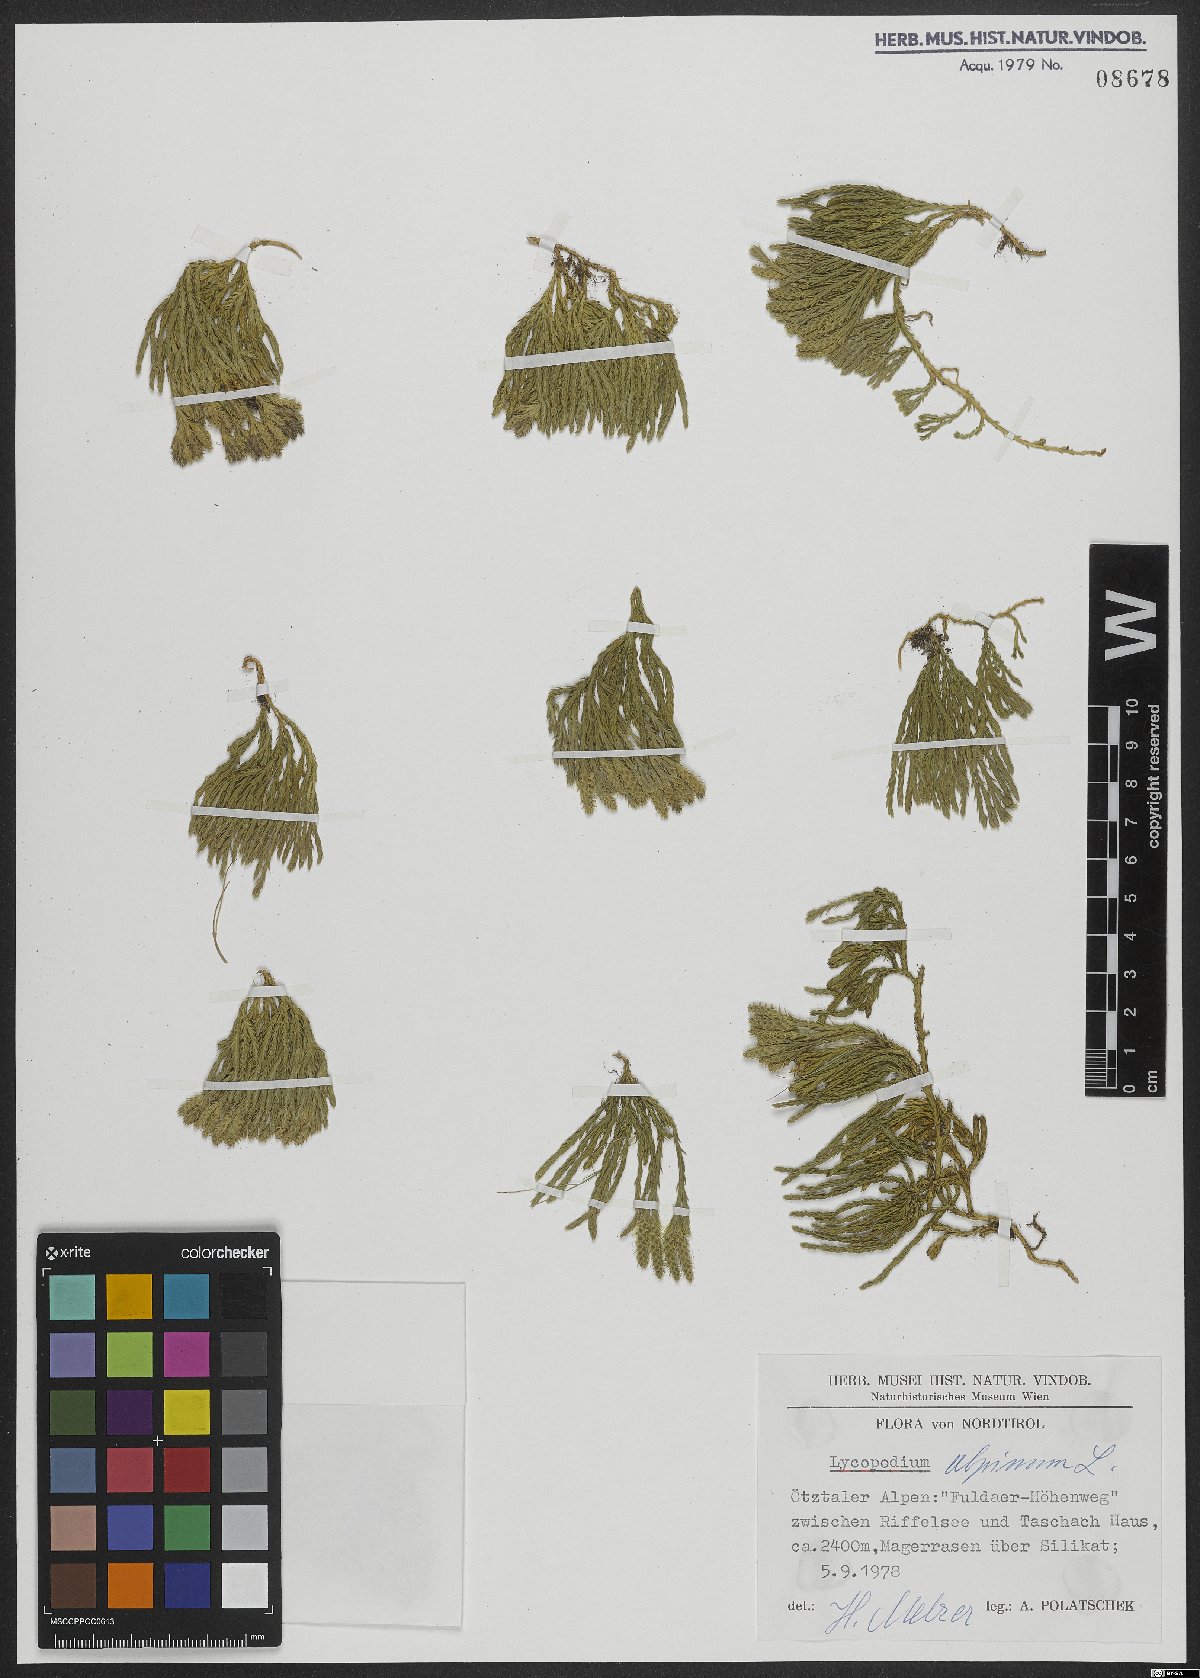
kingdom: Plantae
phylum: Tracheophyta
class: Lycopodiopsida
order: Lycopodiales
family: Lycopodiaceae
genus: Diphasiastrum
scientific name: Diphasiastrum alpinum
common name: Alpine clubmoss
